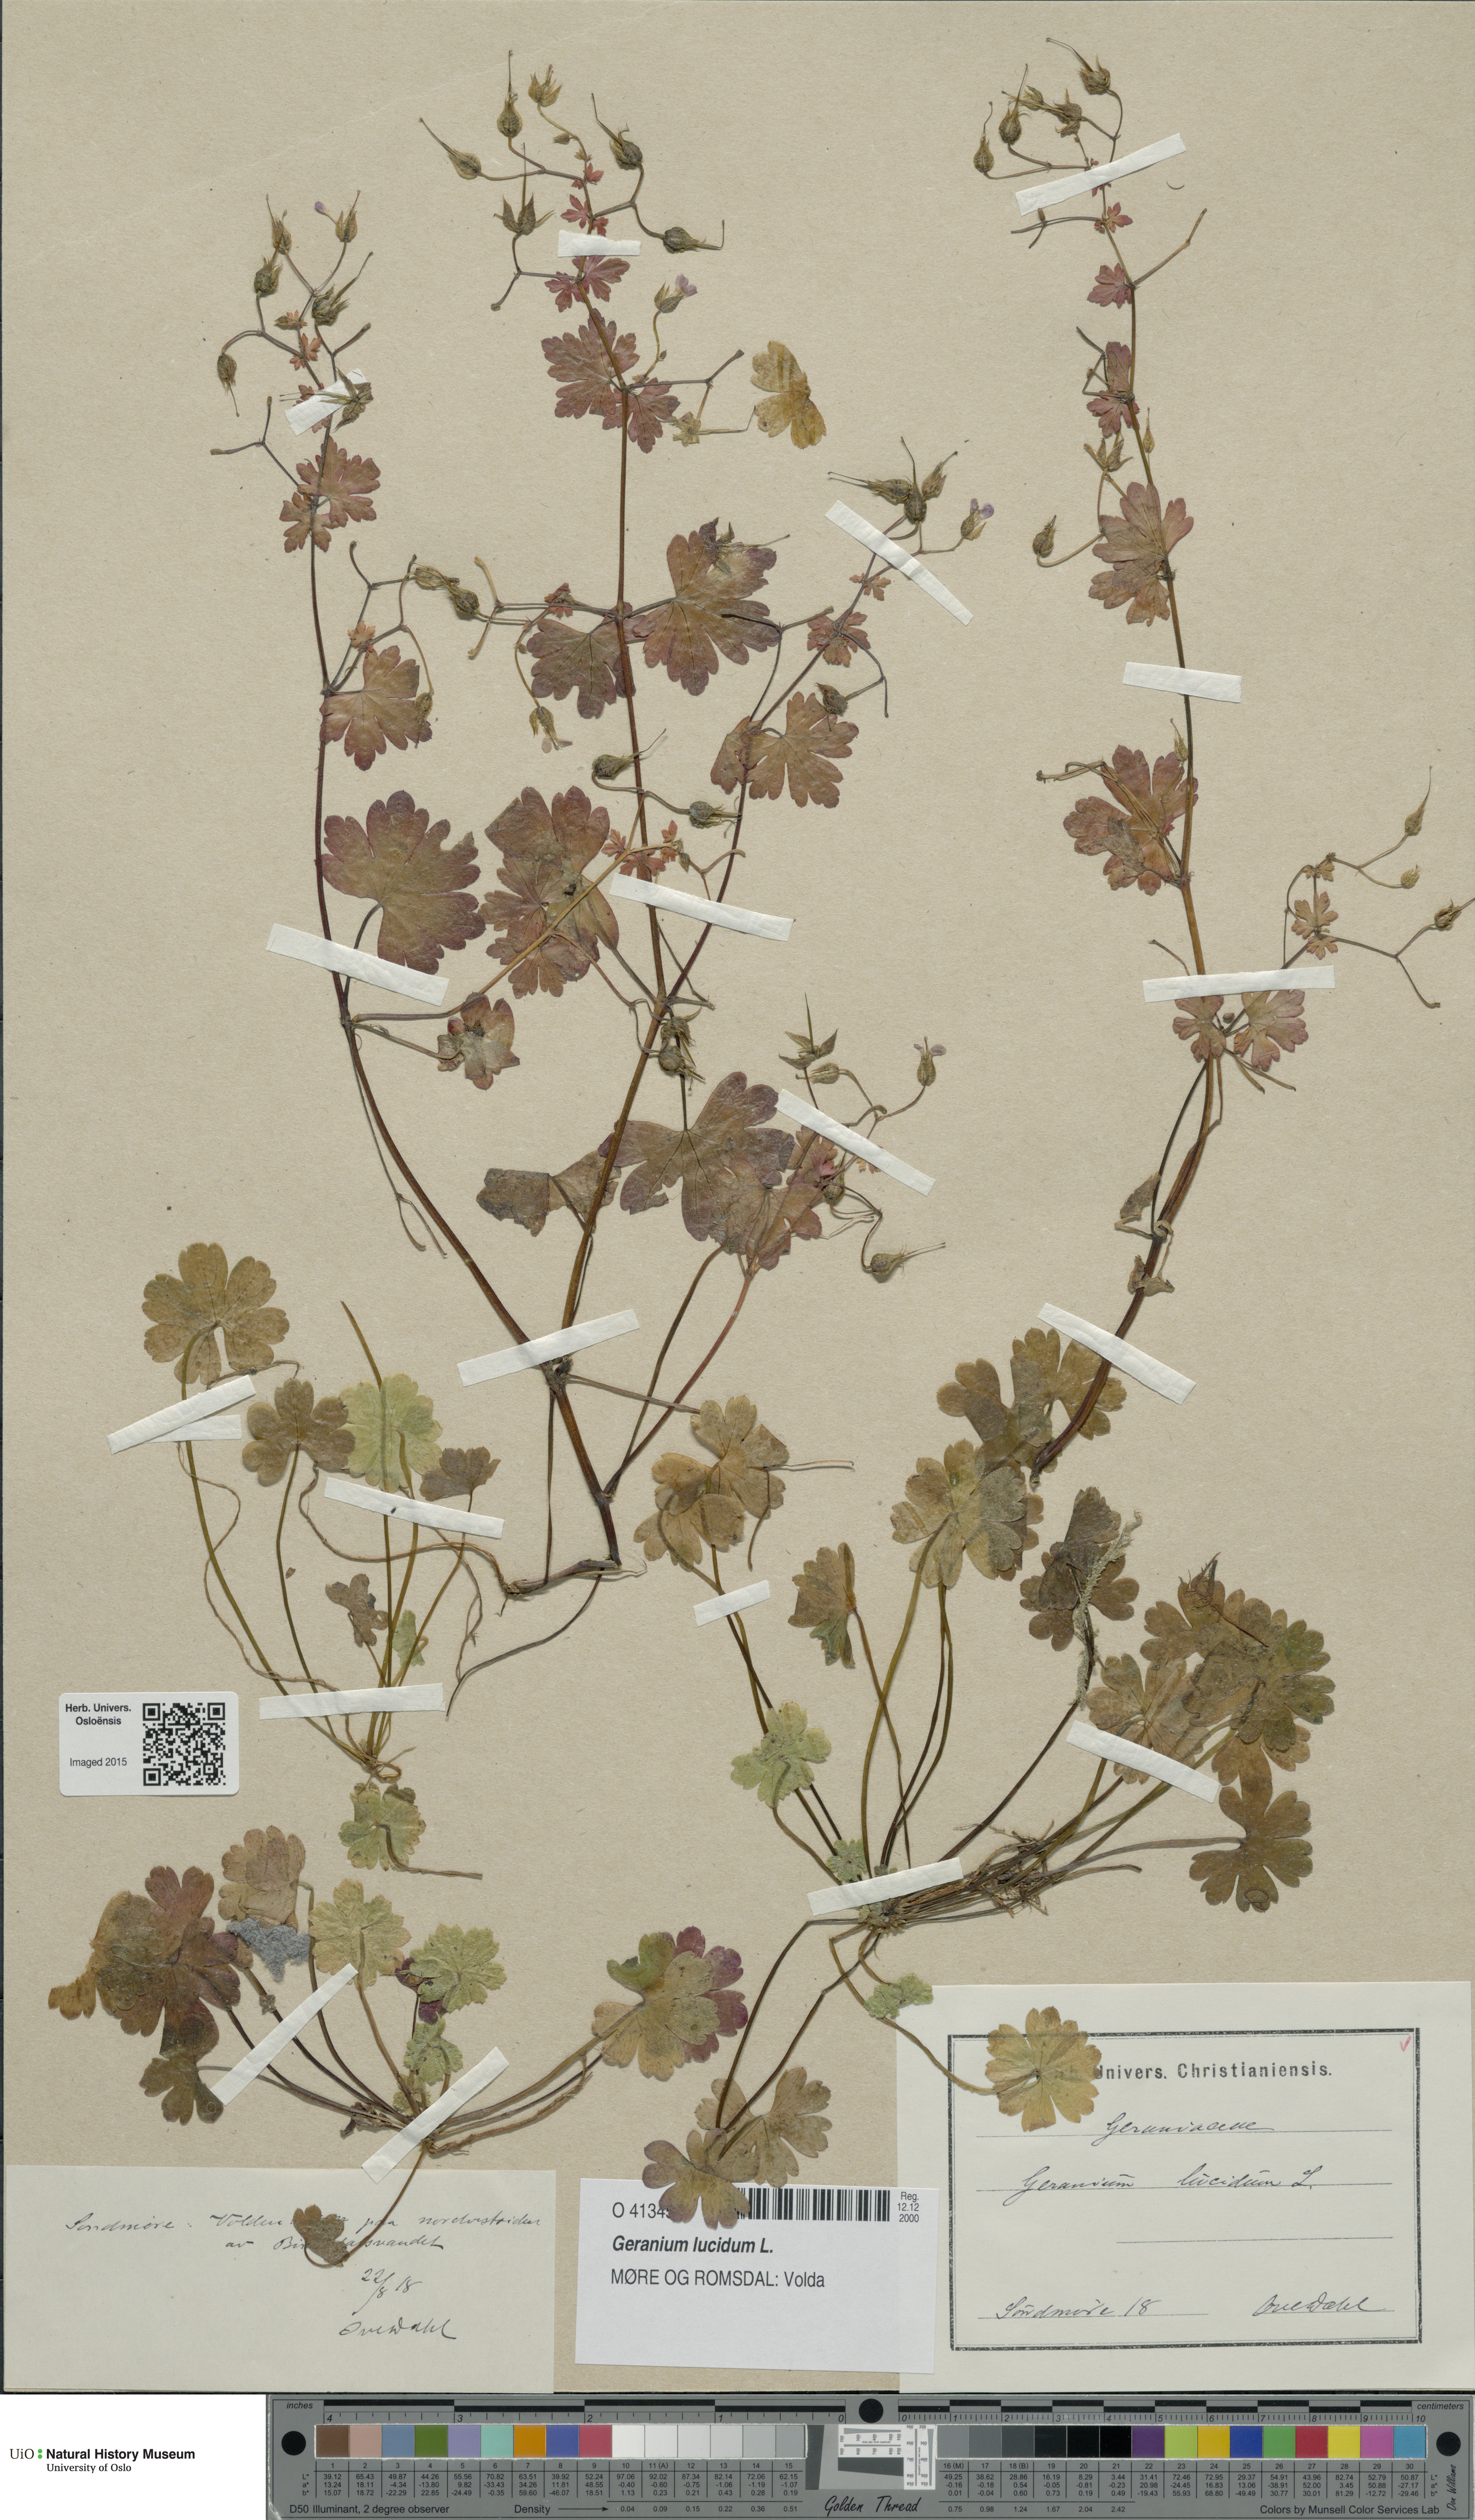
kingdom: Plantae
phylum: Tracheophyta
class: Magnoliopsida
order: Geraniales
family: Geraniaceae
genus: Geranium
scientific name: Geranium lucidum
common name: Shining crane's-bill
